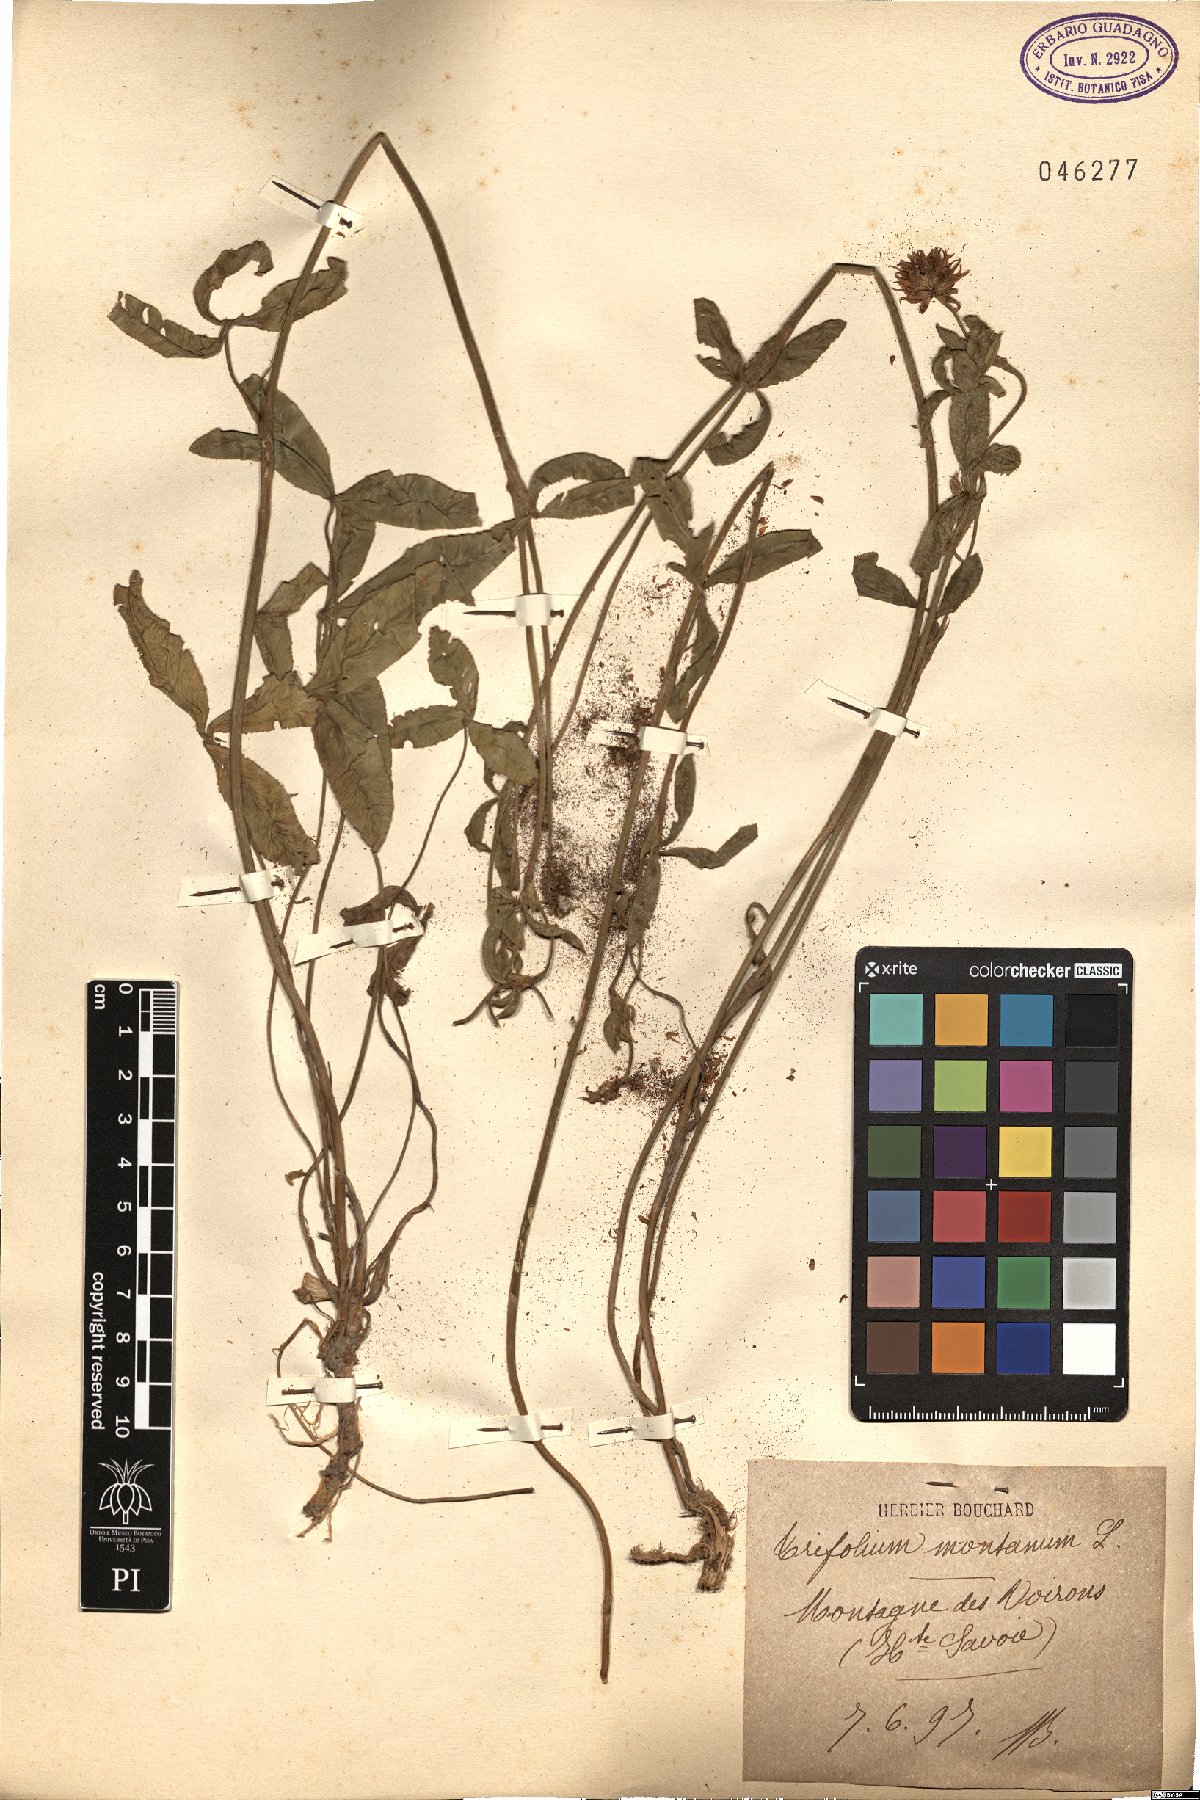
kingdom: Plantae
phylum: Tracheophyta
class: Magnoliopsida
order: Fabales
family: Fabaceae
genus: Trifolium
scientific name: Trifolium montanum
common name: Mountain clover
